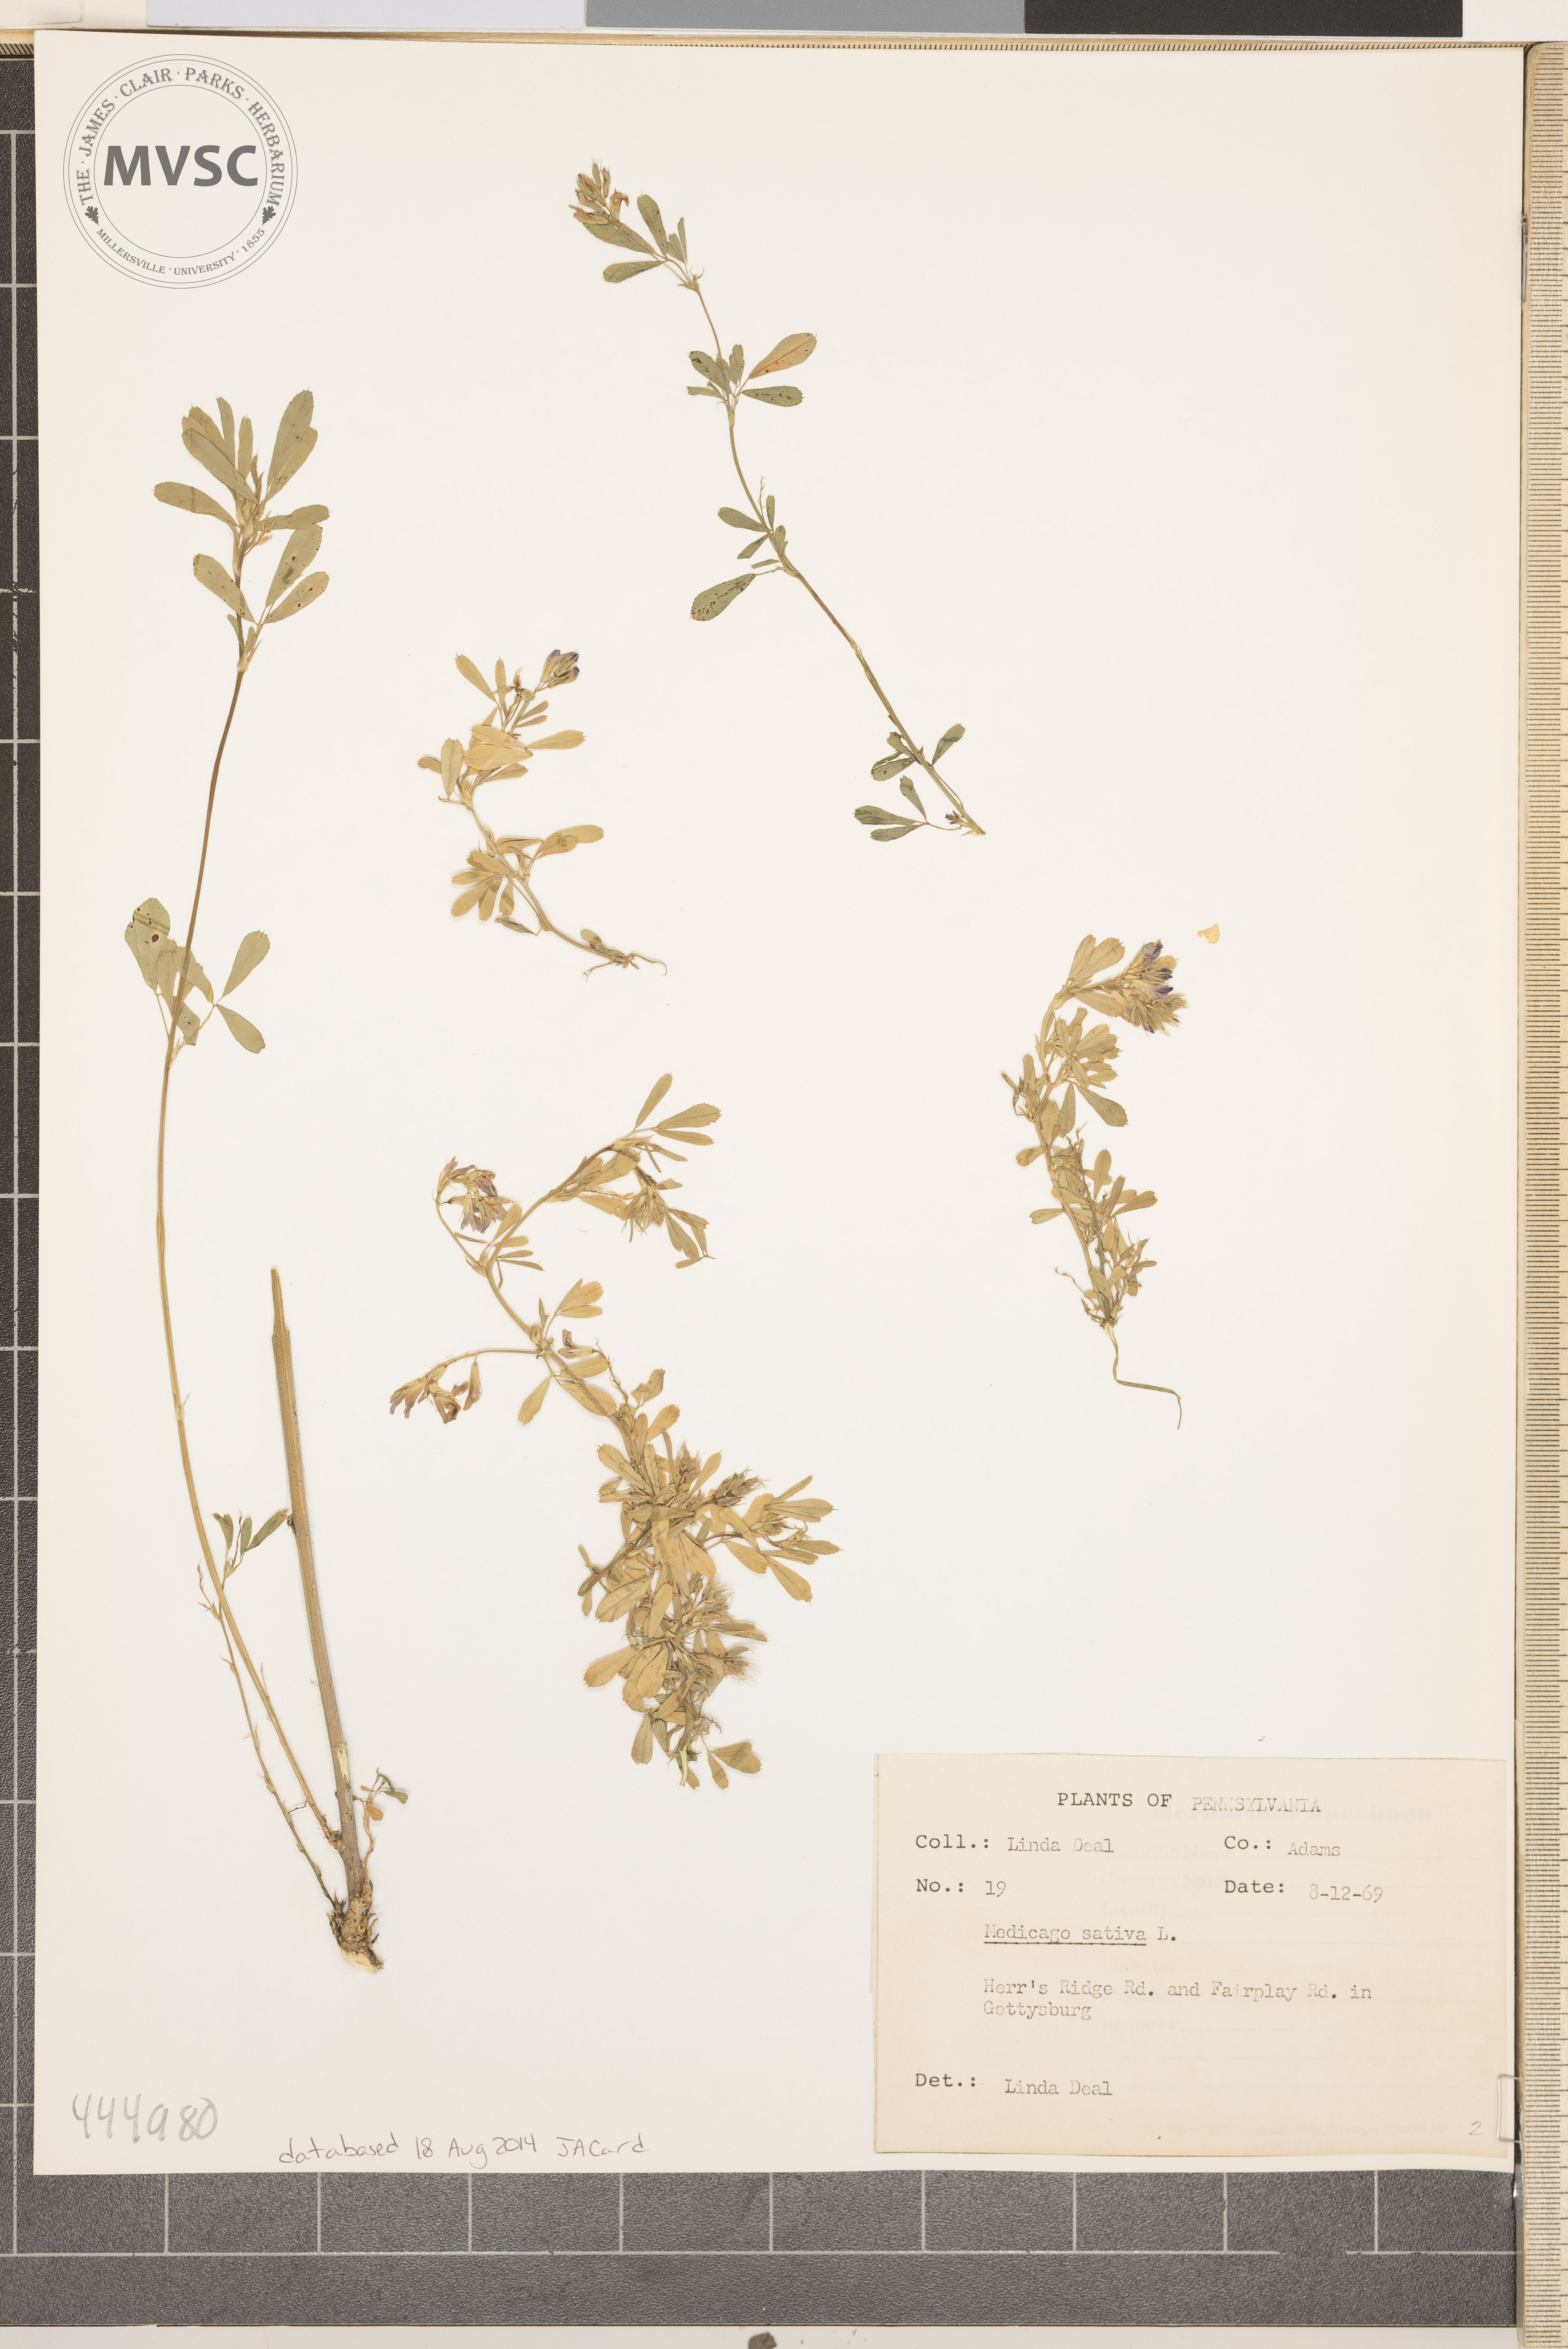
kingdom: Plantae
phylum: Tracheophyta
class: Magnoliopsida
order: Fabales
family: Fabaceae
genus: Medicago
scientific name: Medicago sativa
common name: alfalfa
